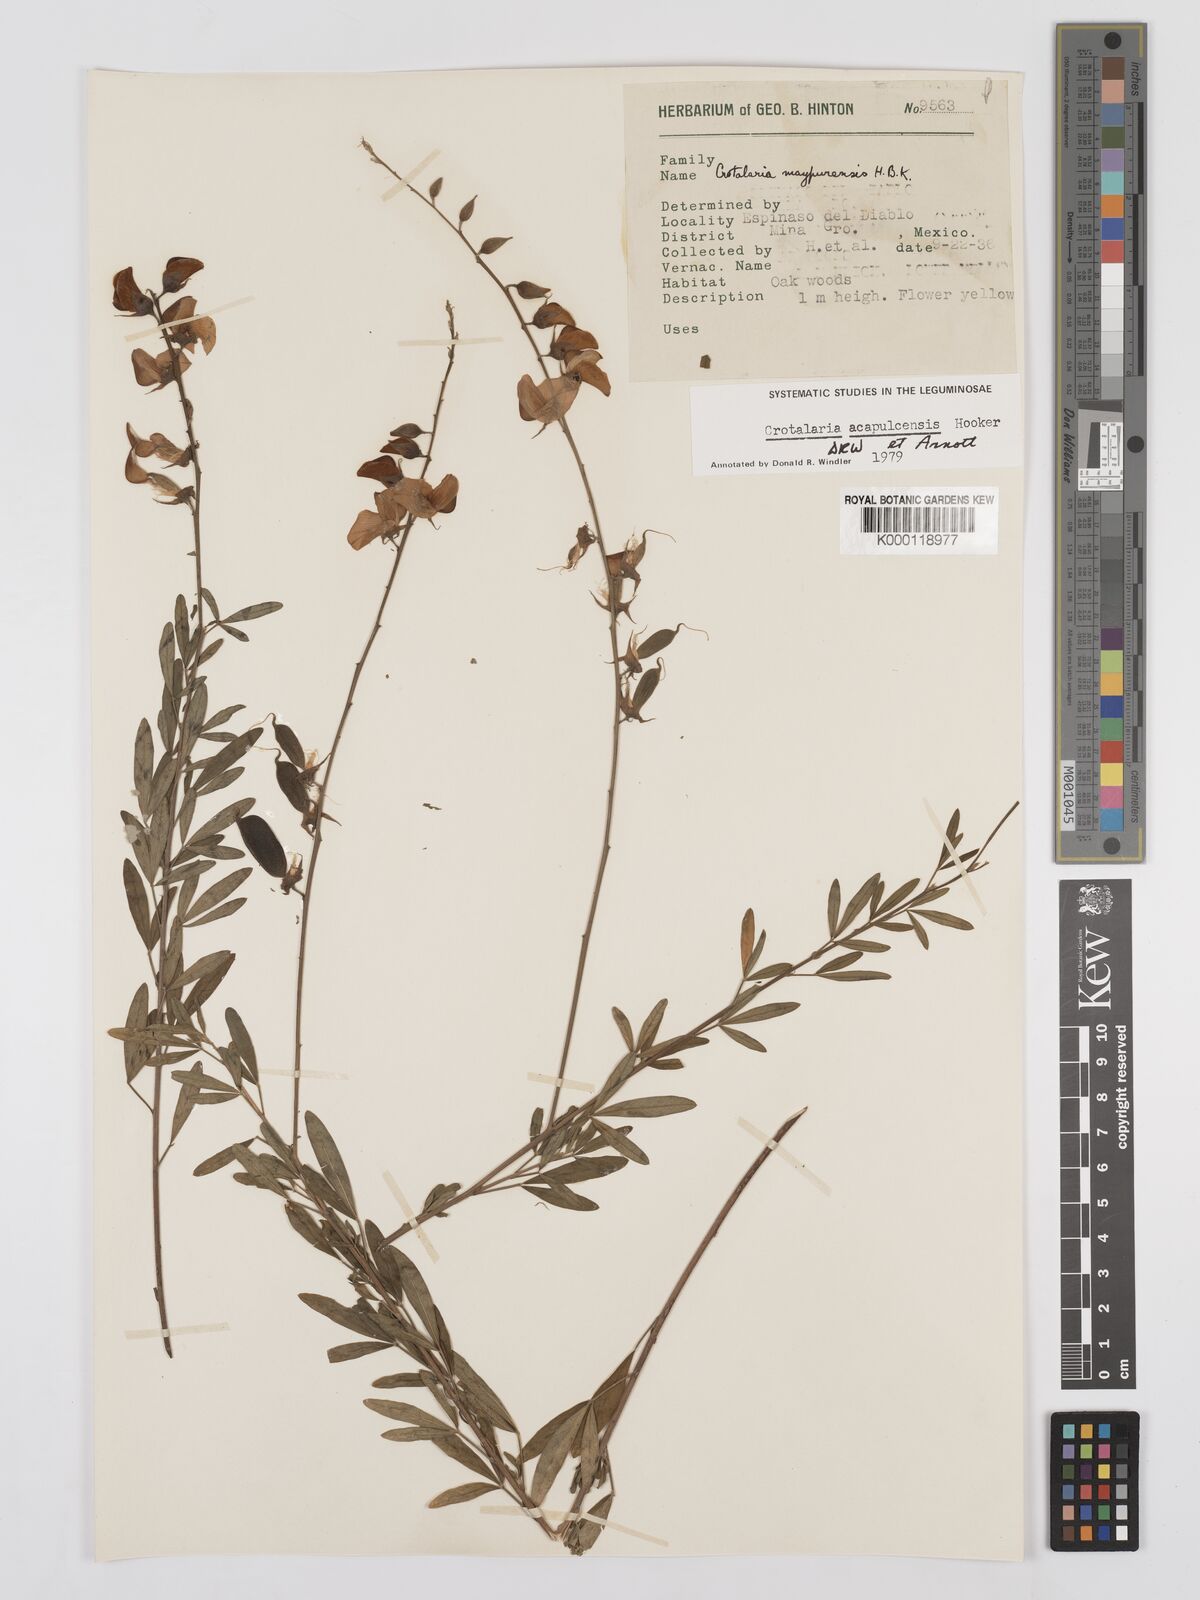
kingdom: Plantae
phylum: Tracheophyta
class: Magnoliopsida
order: Fabales
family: Fabaceae
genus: Crotalaria
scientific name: Crotalaria maypurensis
